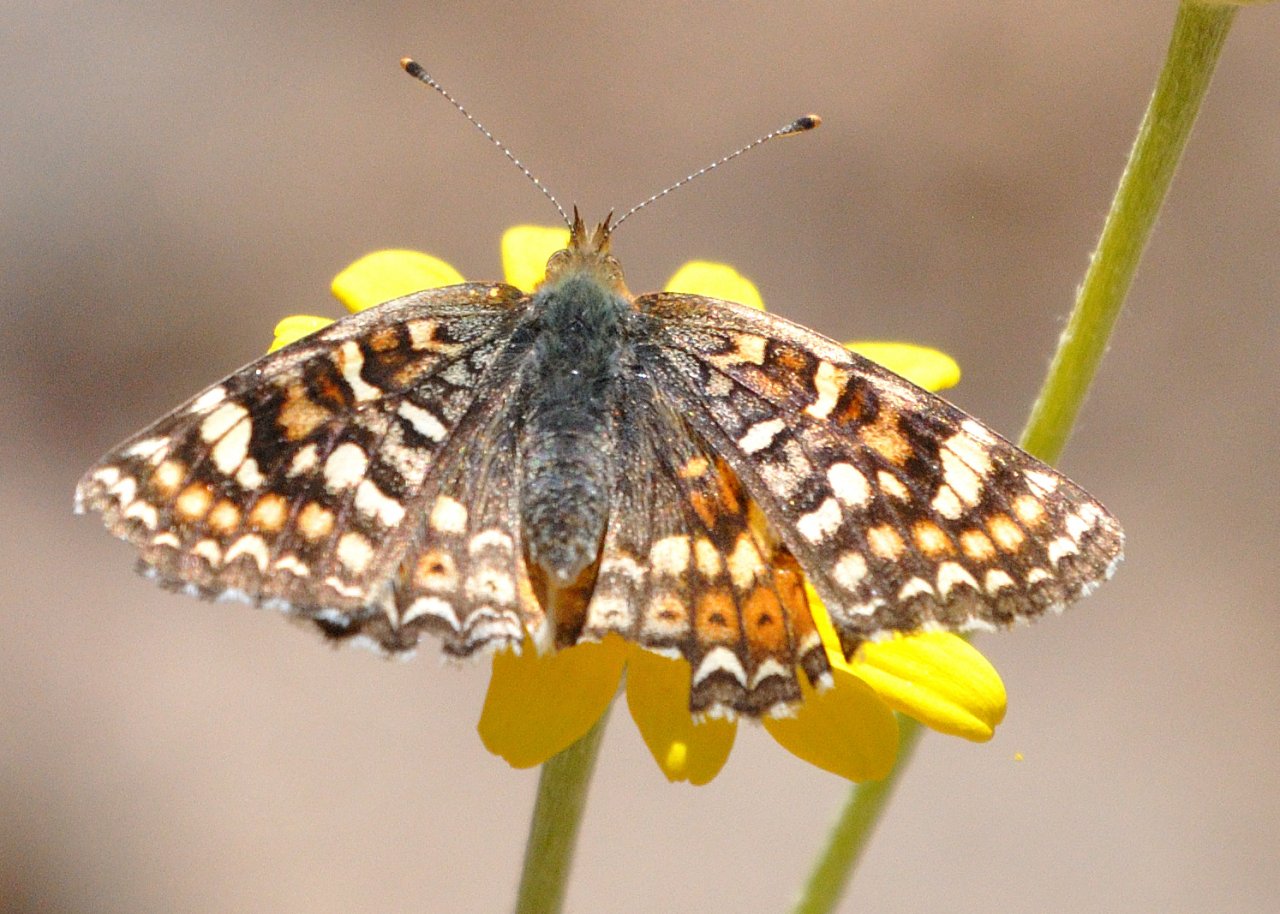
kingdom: Animalia
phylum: Arthropoda
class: Insecta
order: Lepidoptera
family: Nymphalidae
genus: Phyciodes
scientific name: Phyciodes orseis
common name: California Crescent
